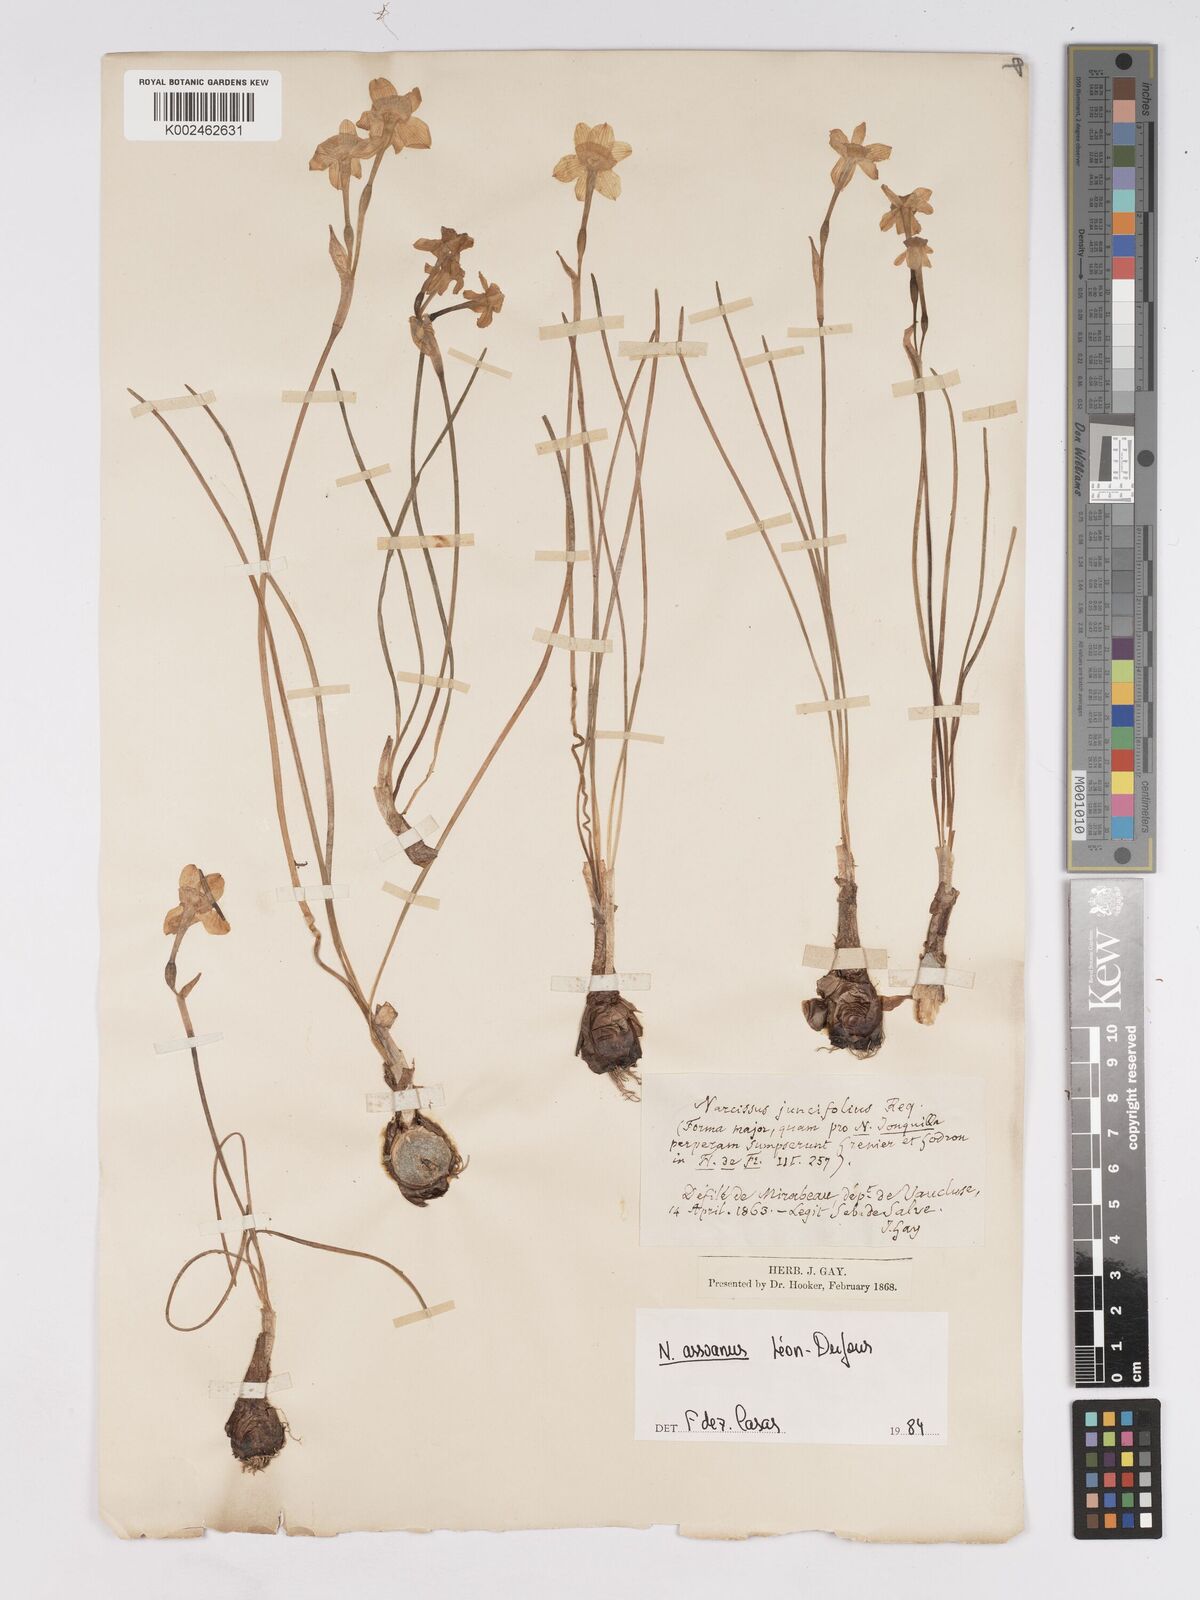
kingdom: Plantae
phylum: Tracheophyta
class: Liliopsida
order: Asparagales
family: Amaryllidaceae
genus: Narcissus
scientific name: Narcissus assoanus
